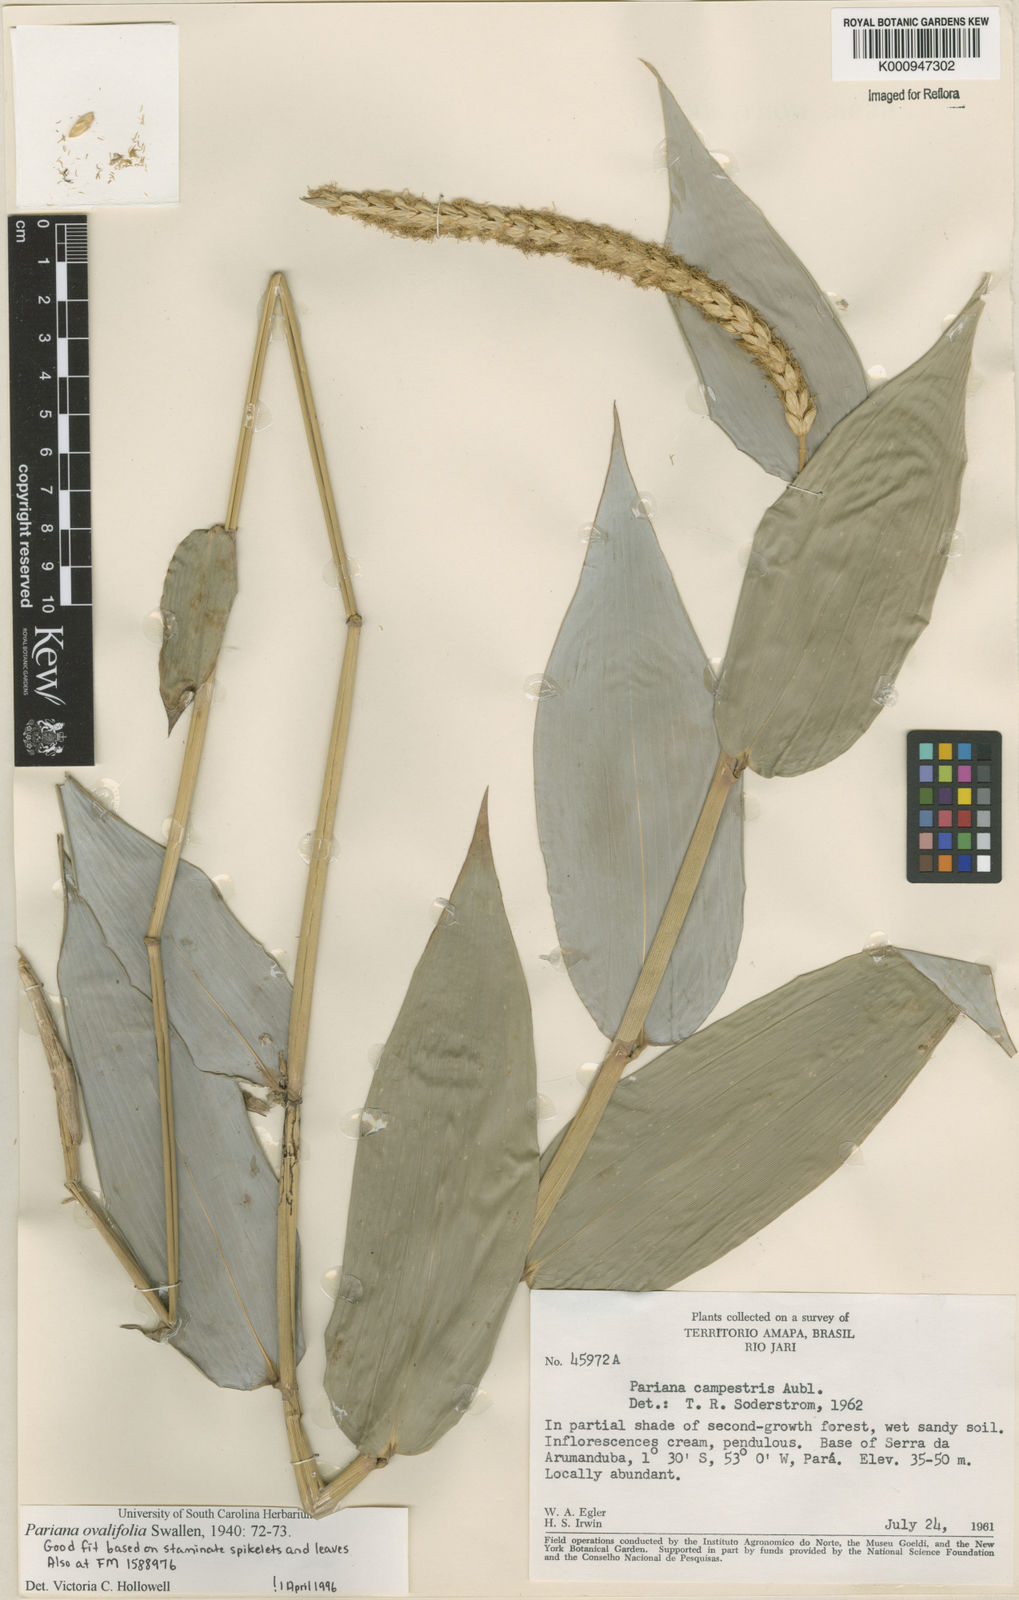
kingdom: Plantae
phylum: Tracheophyta
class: Liliopsida
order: Poales
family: Poaceae
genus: Pariana
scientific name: Pariana ovalifolia
